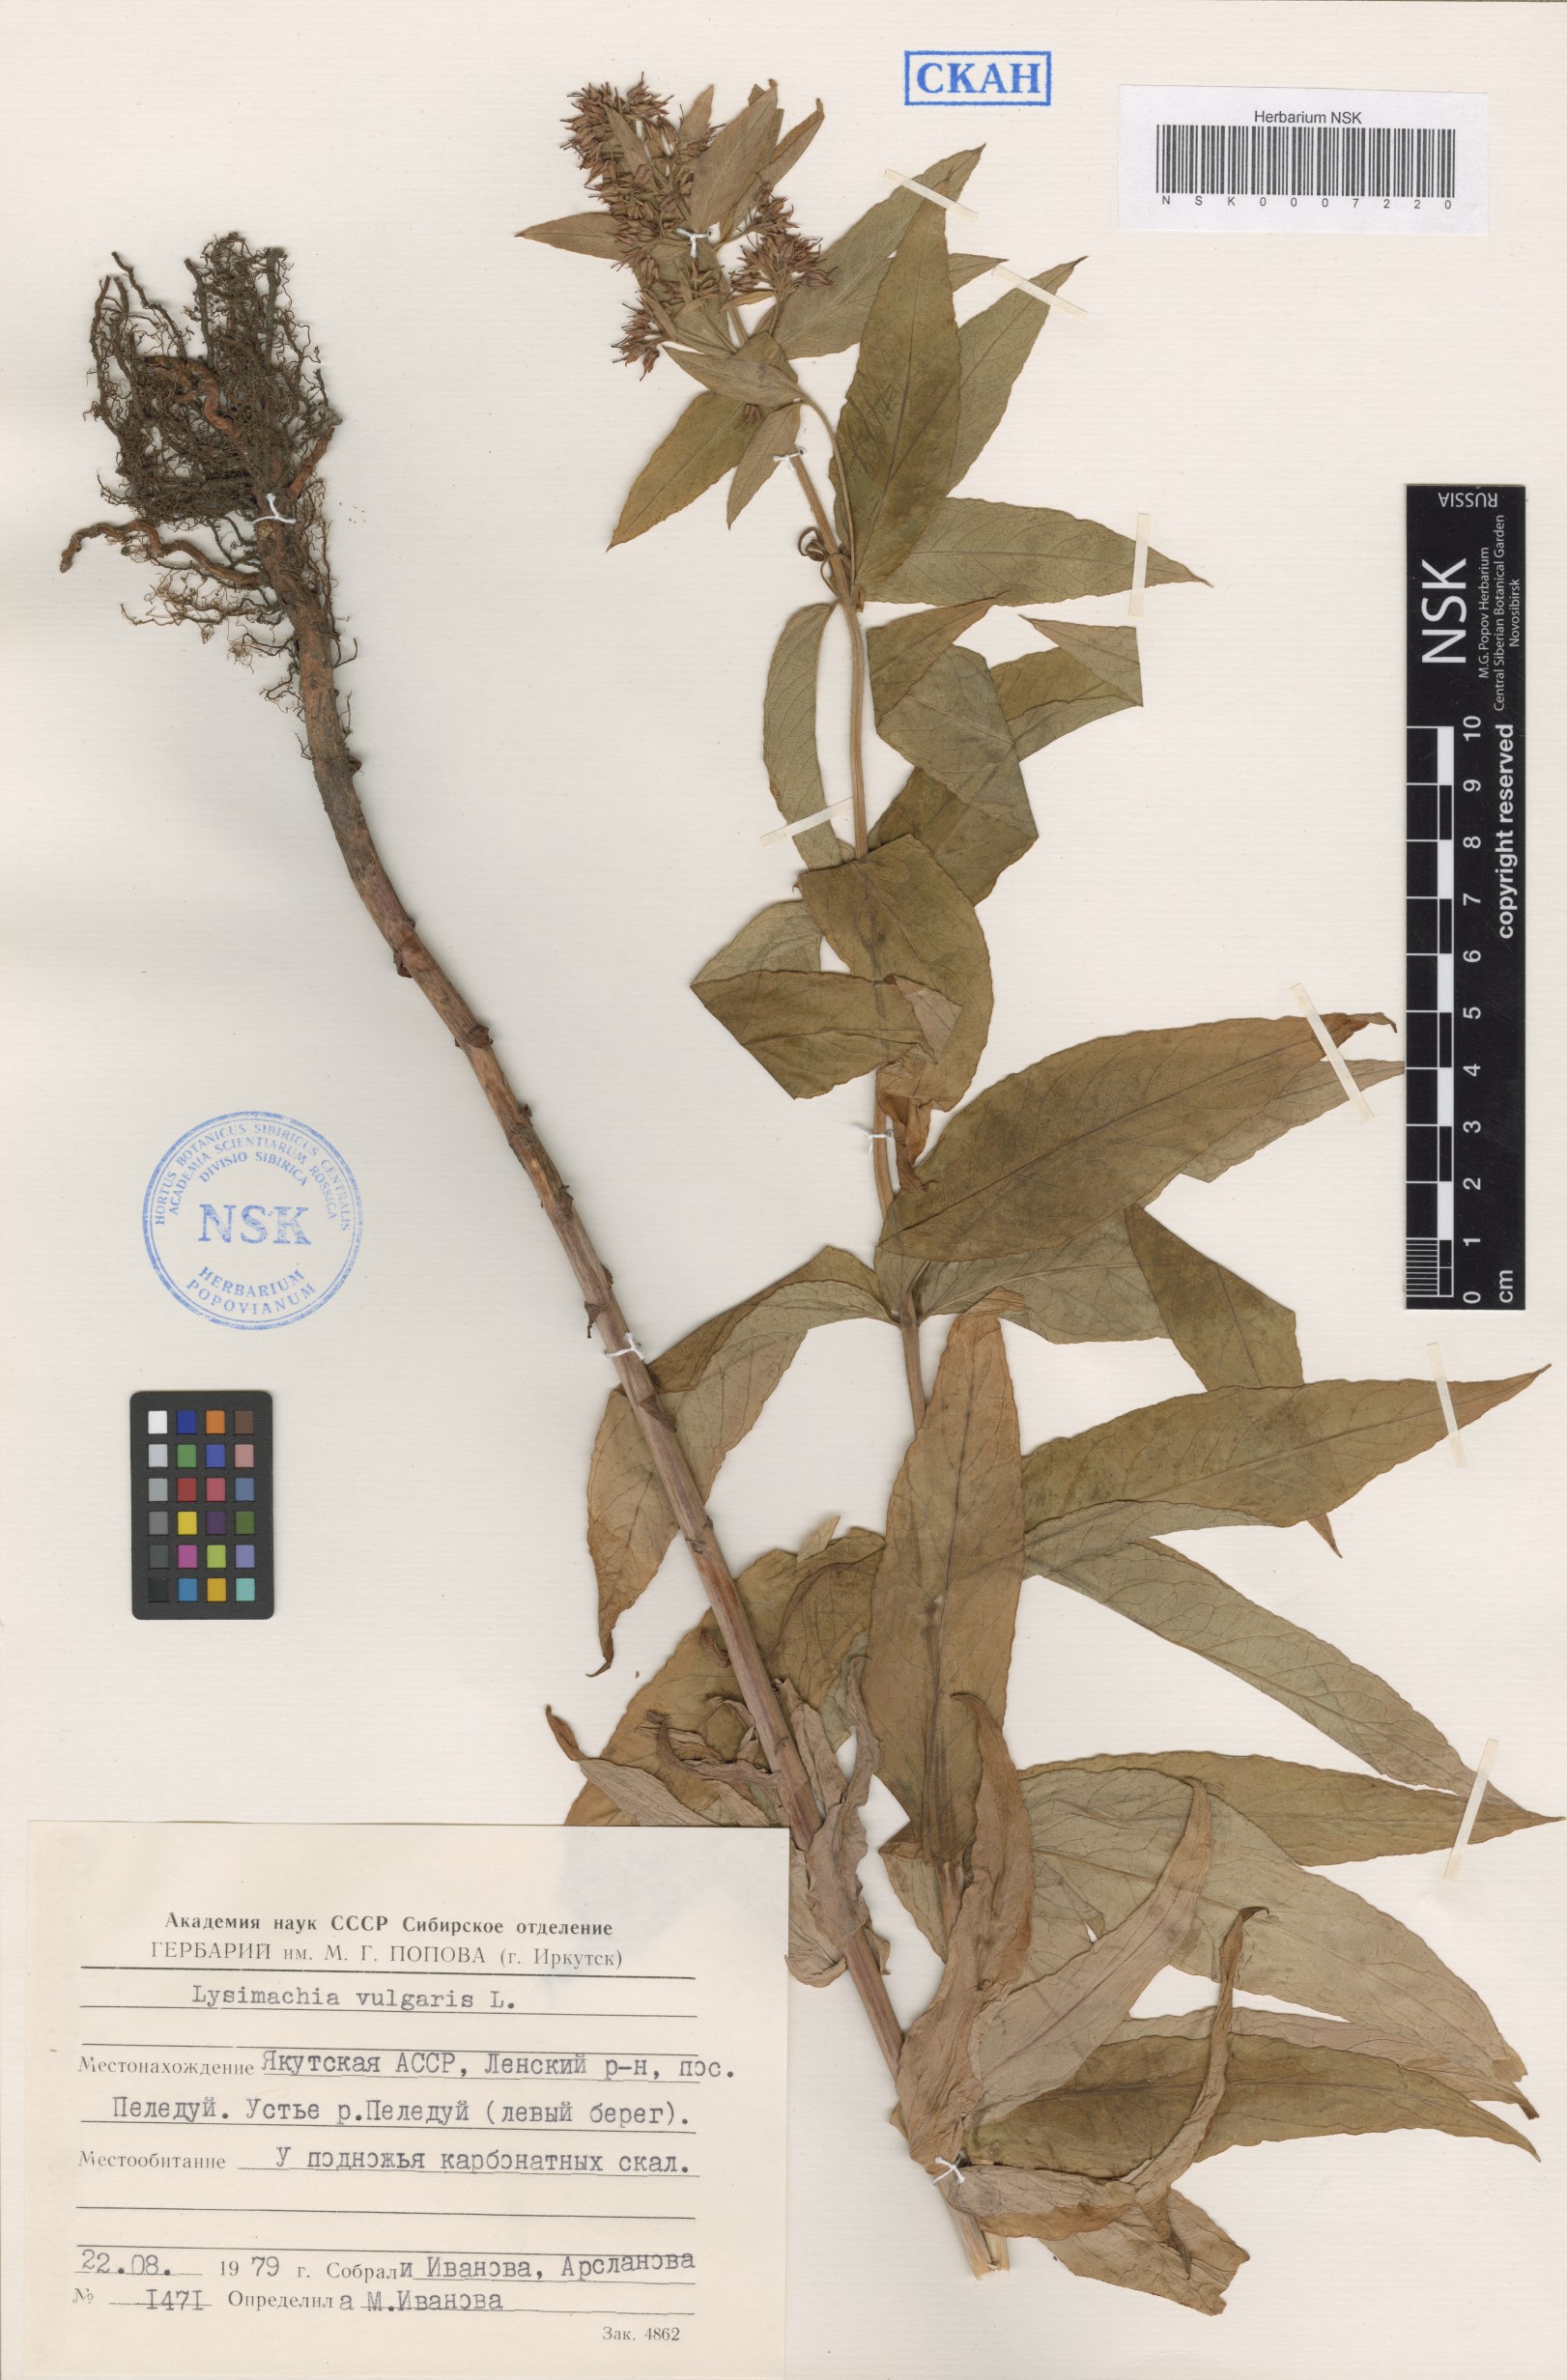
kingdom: Plantae
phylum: Tracheophyta
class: Magnoliopsida
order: Ericales
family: Primulaceae
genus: Lysimachia
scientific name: Lysimachia vulgaris
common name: Yellow loosestrife
